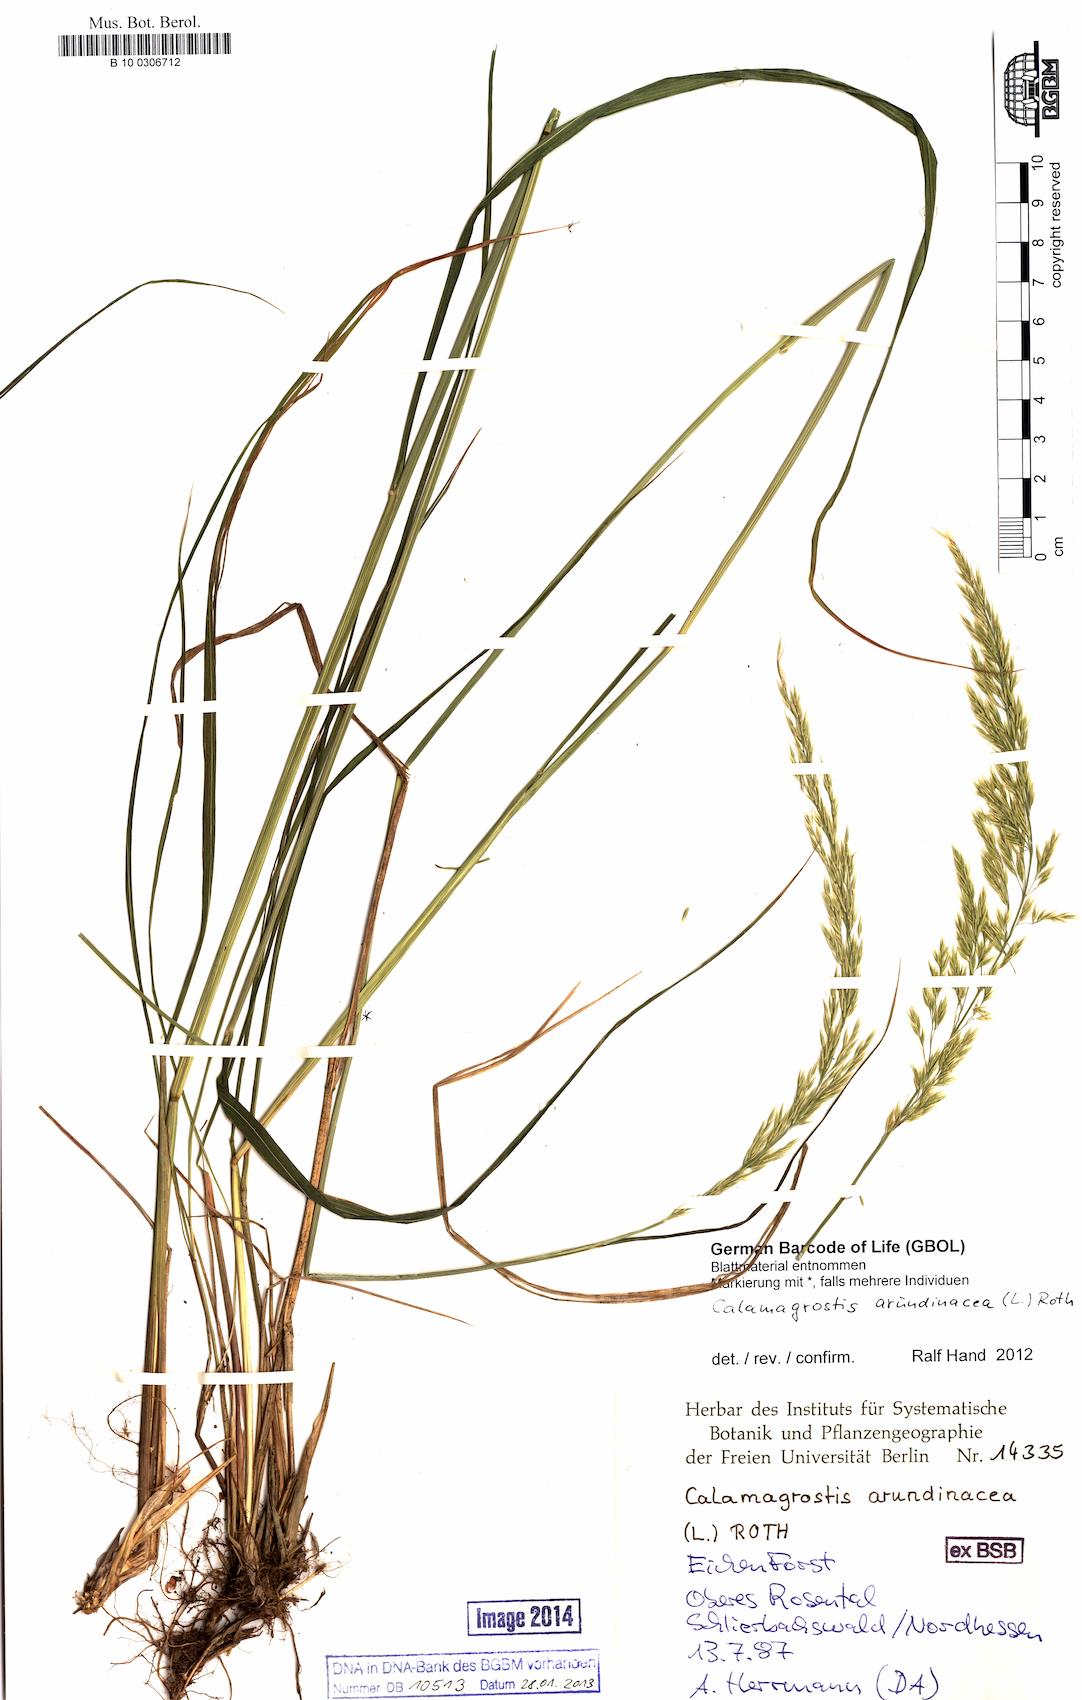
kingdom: Plantae
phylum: Tracheophyta
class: Liliopsida
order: Poales
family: Poaceae
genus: Calamagrostis
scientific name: Calamagrostis arundinacea
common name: Metskastik
